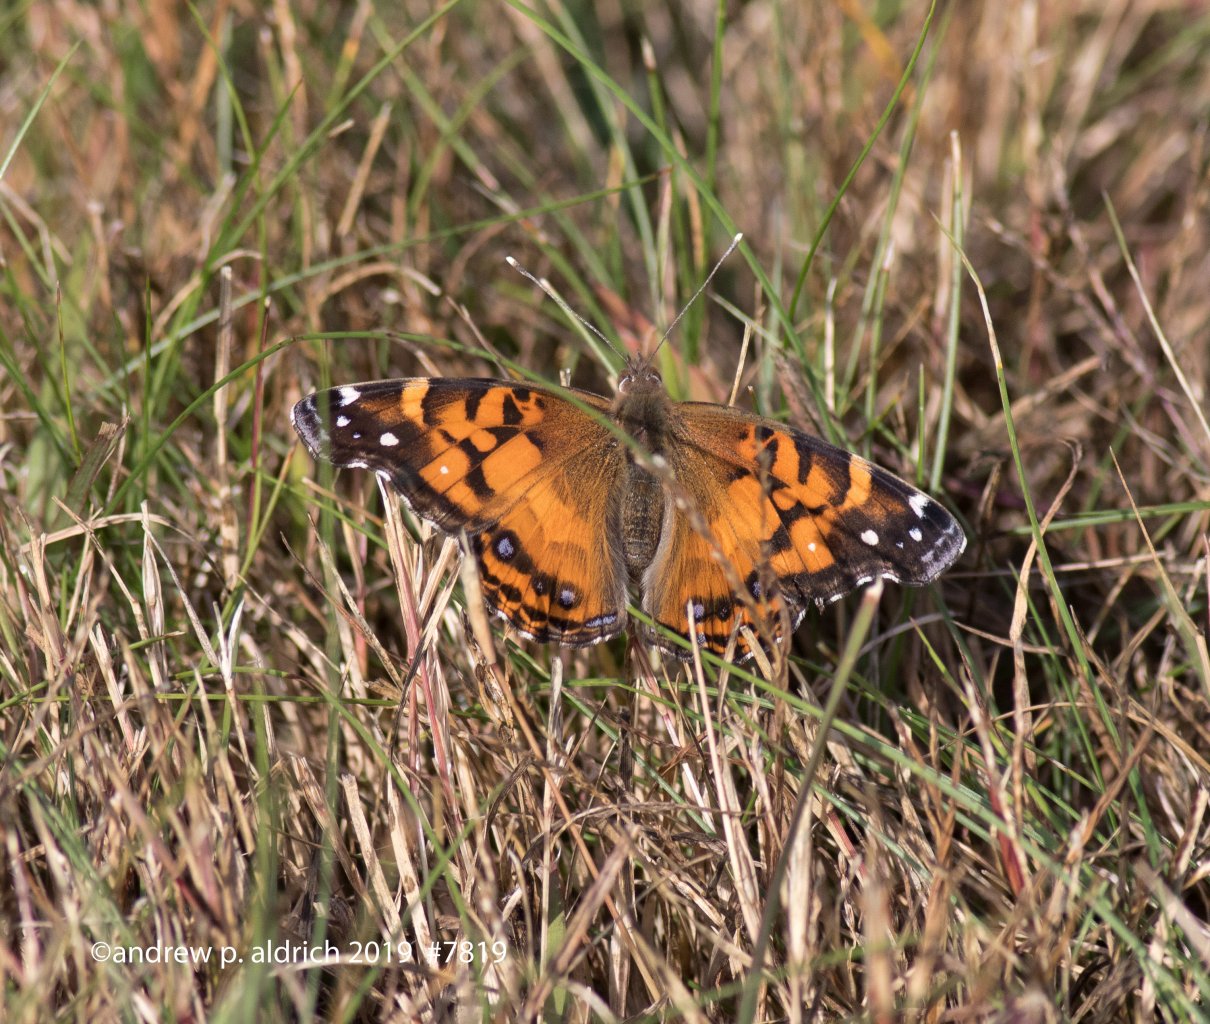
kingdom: Animalia
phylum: Arthropoda
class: Insecta
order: Lepidoptera
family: Nymphalidae
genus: Vanessa
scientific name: Vanessa virginiensis
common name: American Lady
